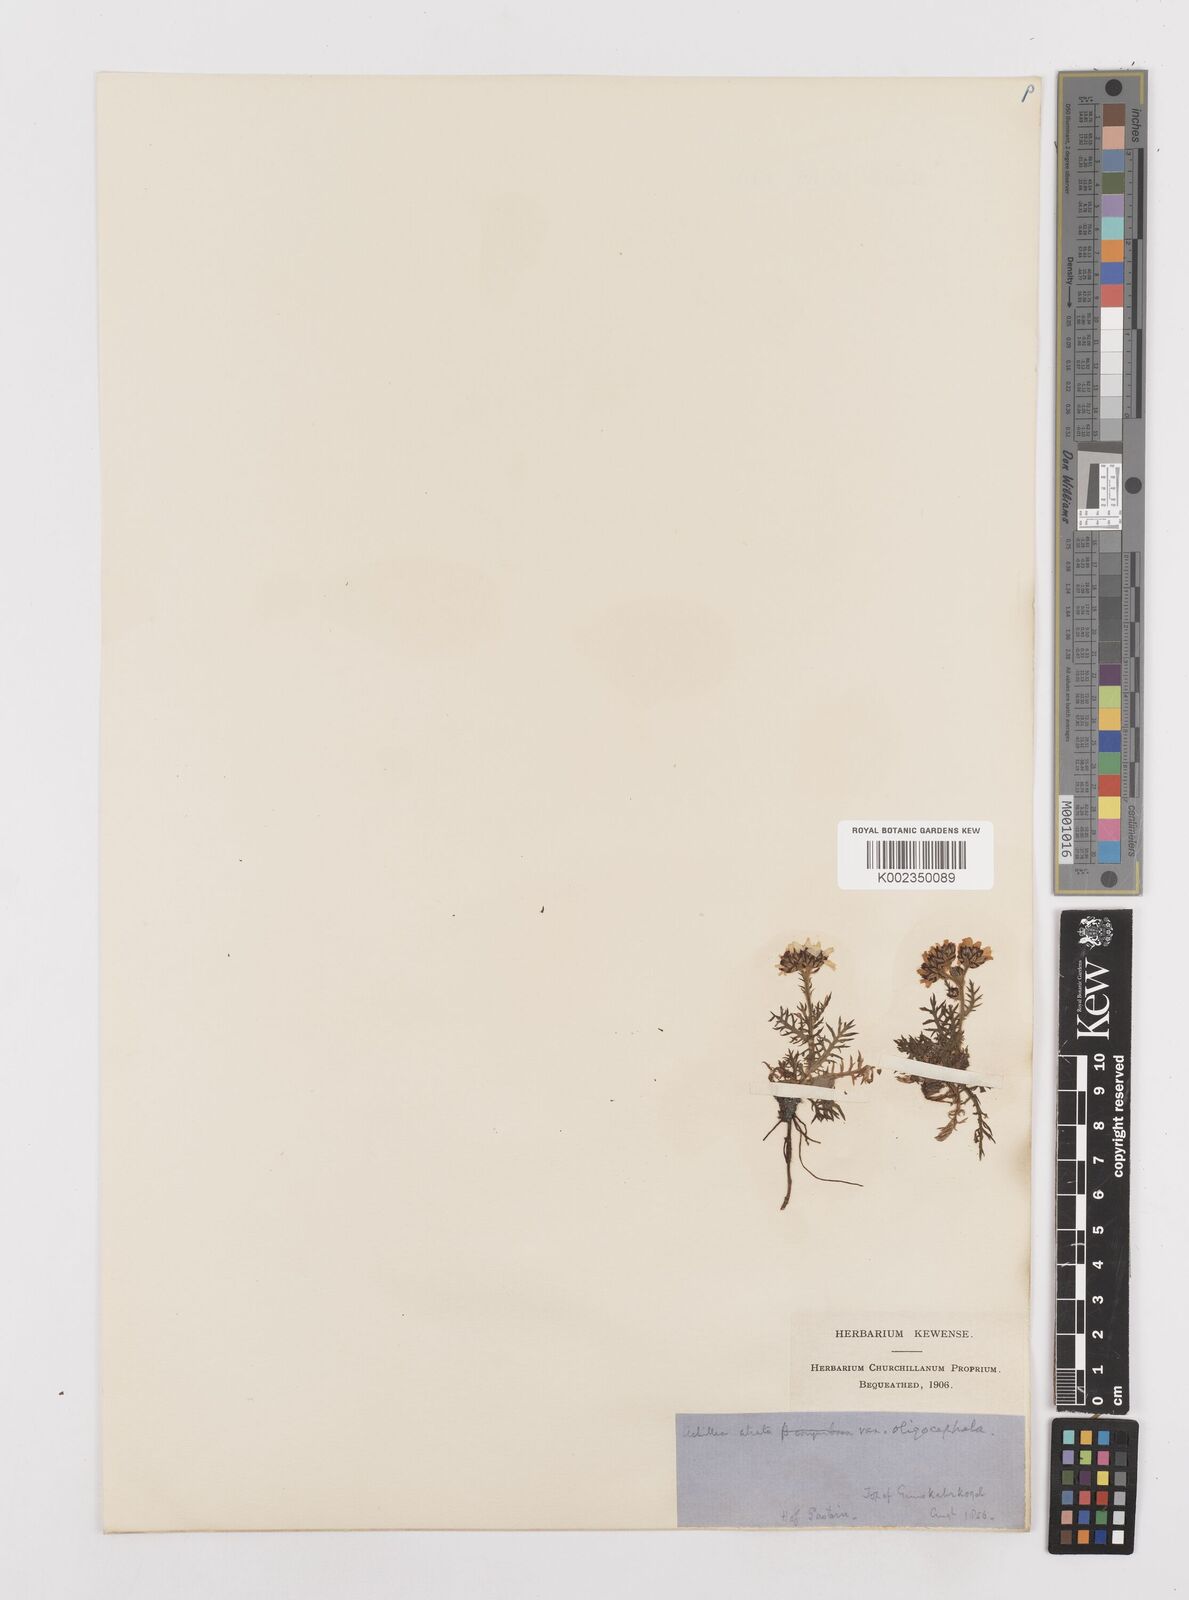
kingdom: Plantae
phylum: Tracheophyta
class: Magnoliopsida
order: Asterales
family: Asteraceae
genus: Achillea
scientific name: Achillea atrata
